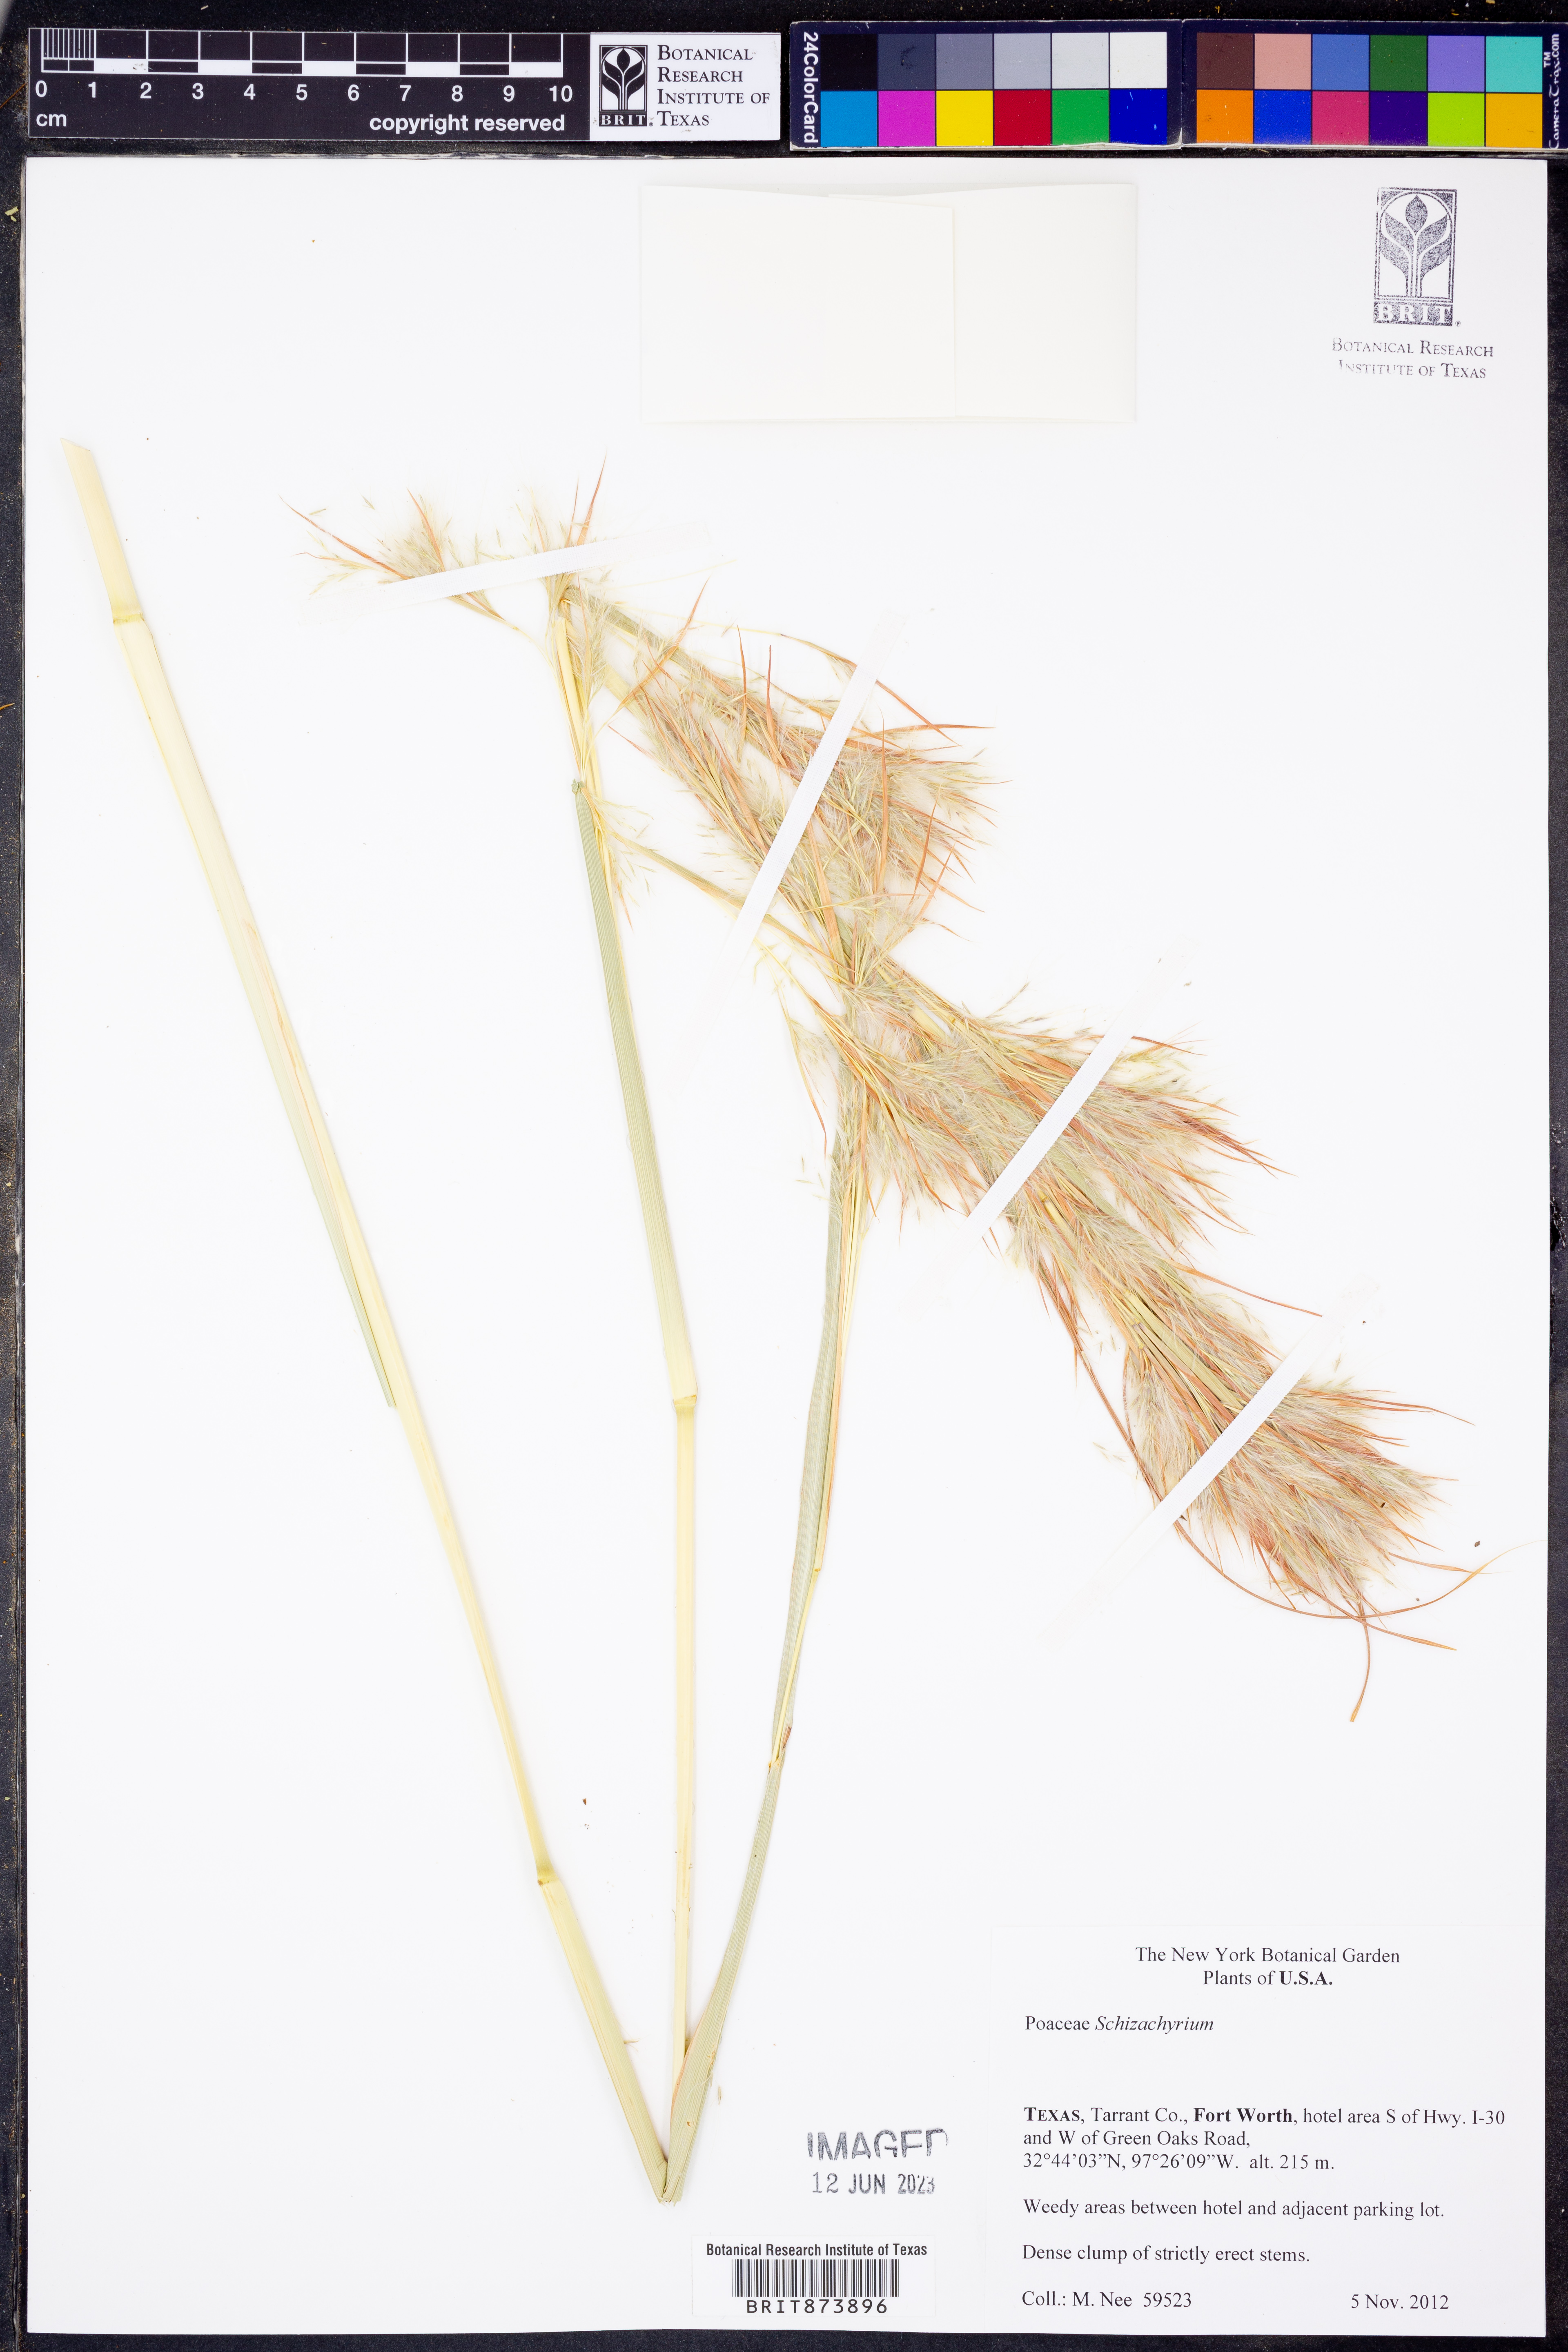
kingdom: Plantae
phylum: Tracheophyta
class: Liliopsida
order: Poales
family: Poaceae
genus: Schizachyrium
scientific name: Schizachyrium
